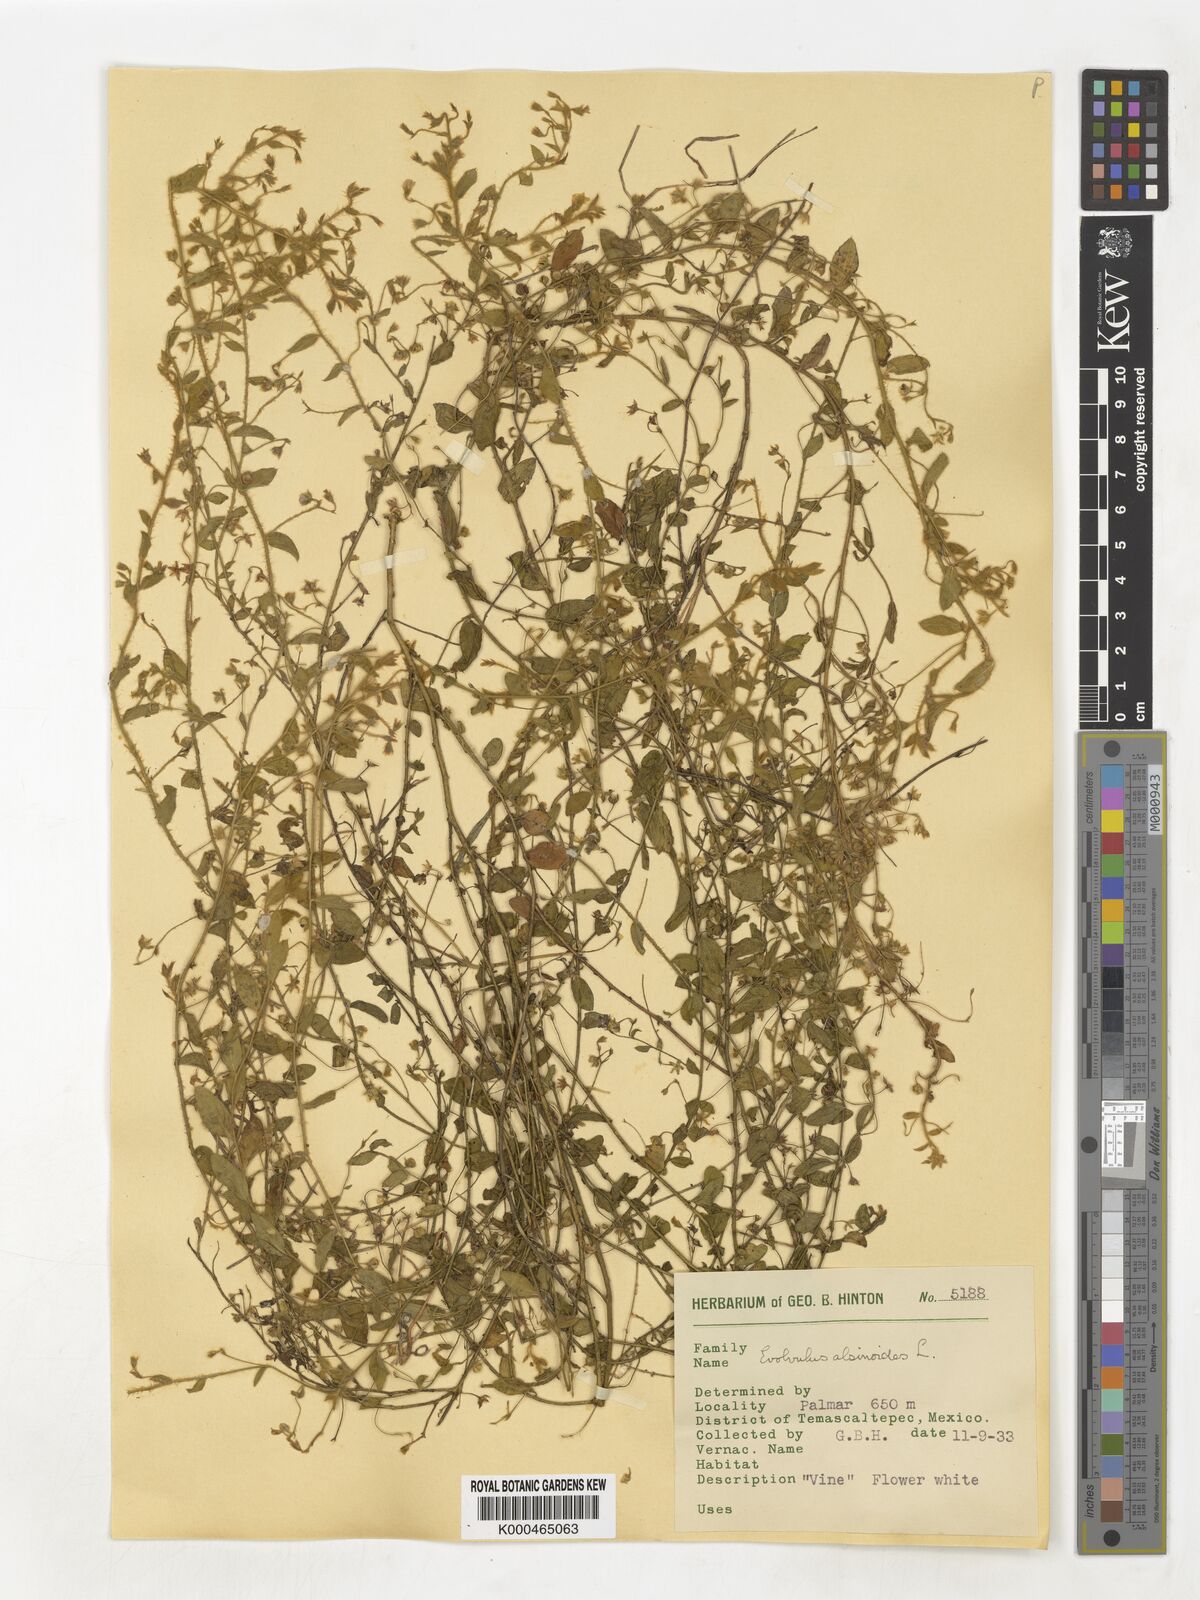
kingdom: Plantae
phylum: Tracheophyta
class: Magnoliopsida
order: Solanales
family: Convolvulaceae
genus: Evolvulus
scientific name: Evolvulus alsinoides
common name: Slender dwarf morning-glory
